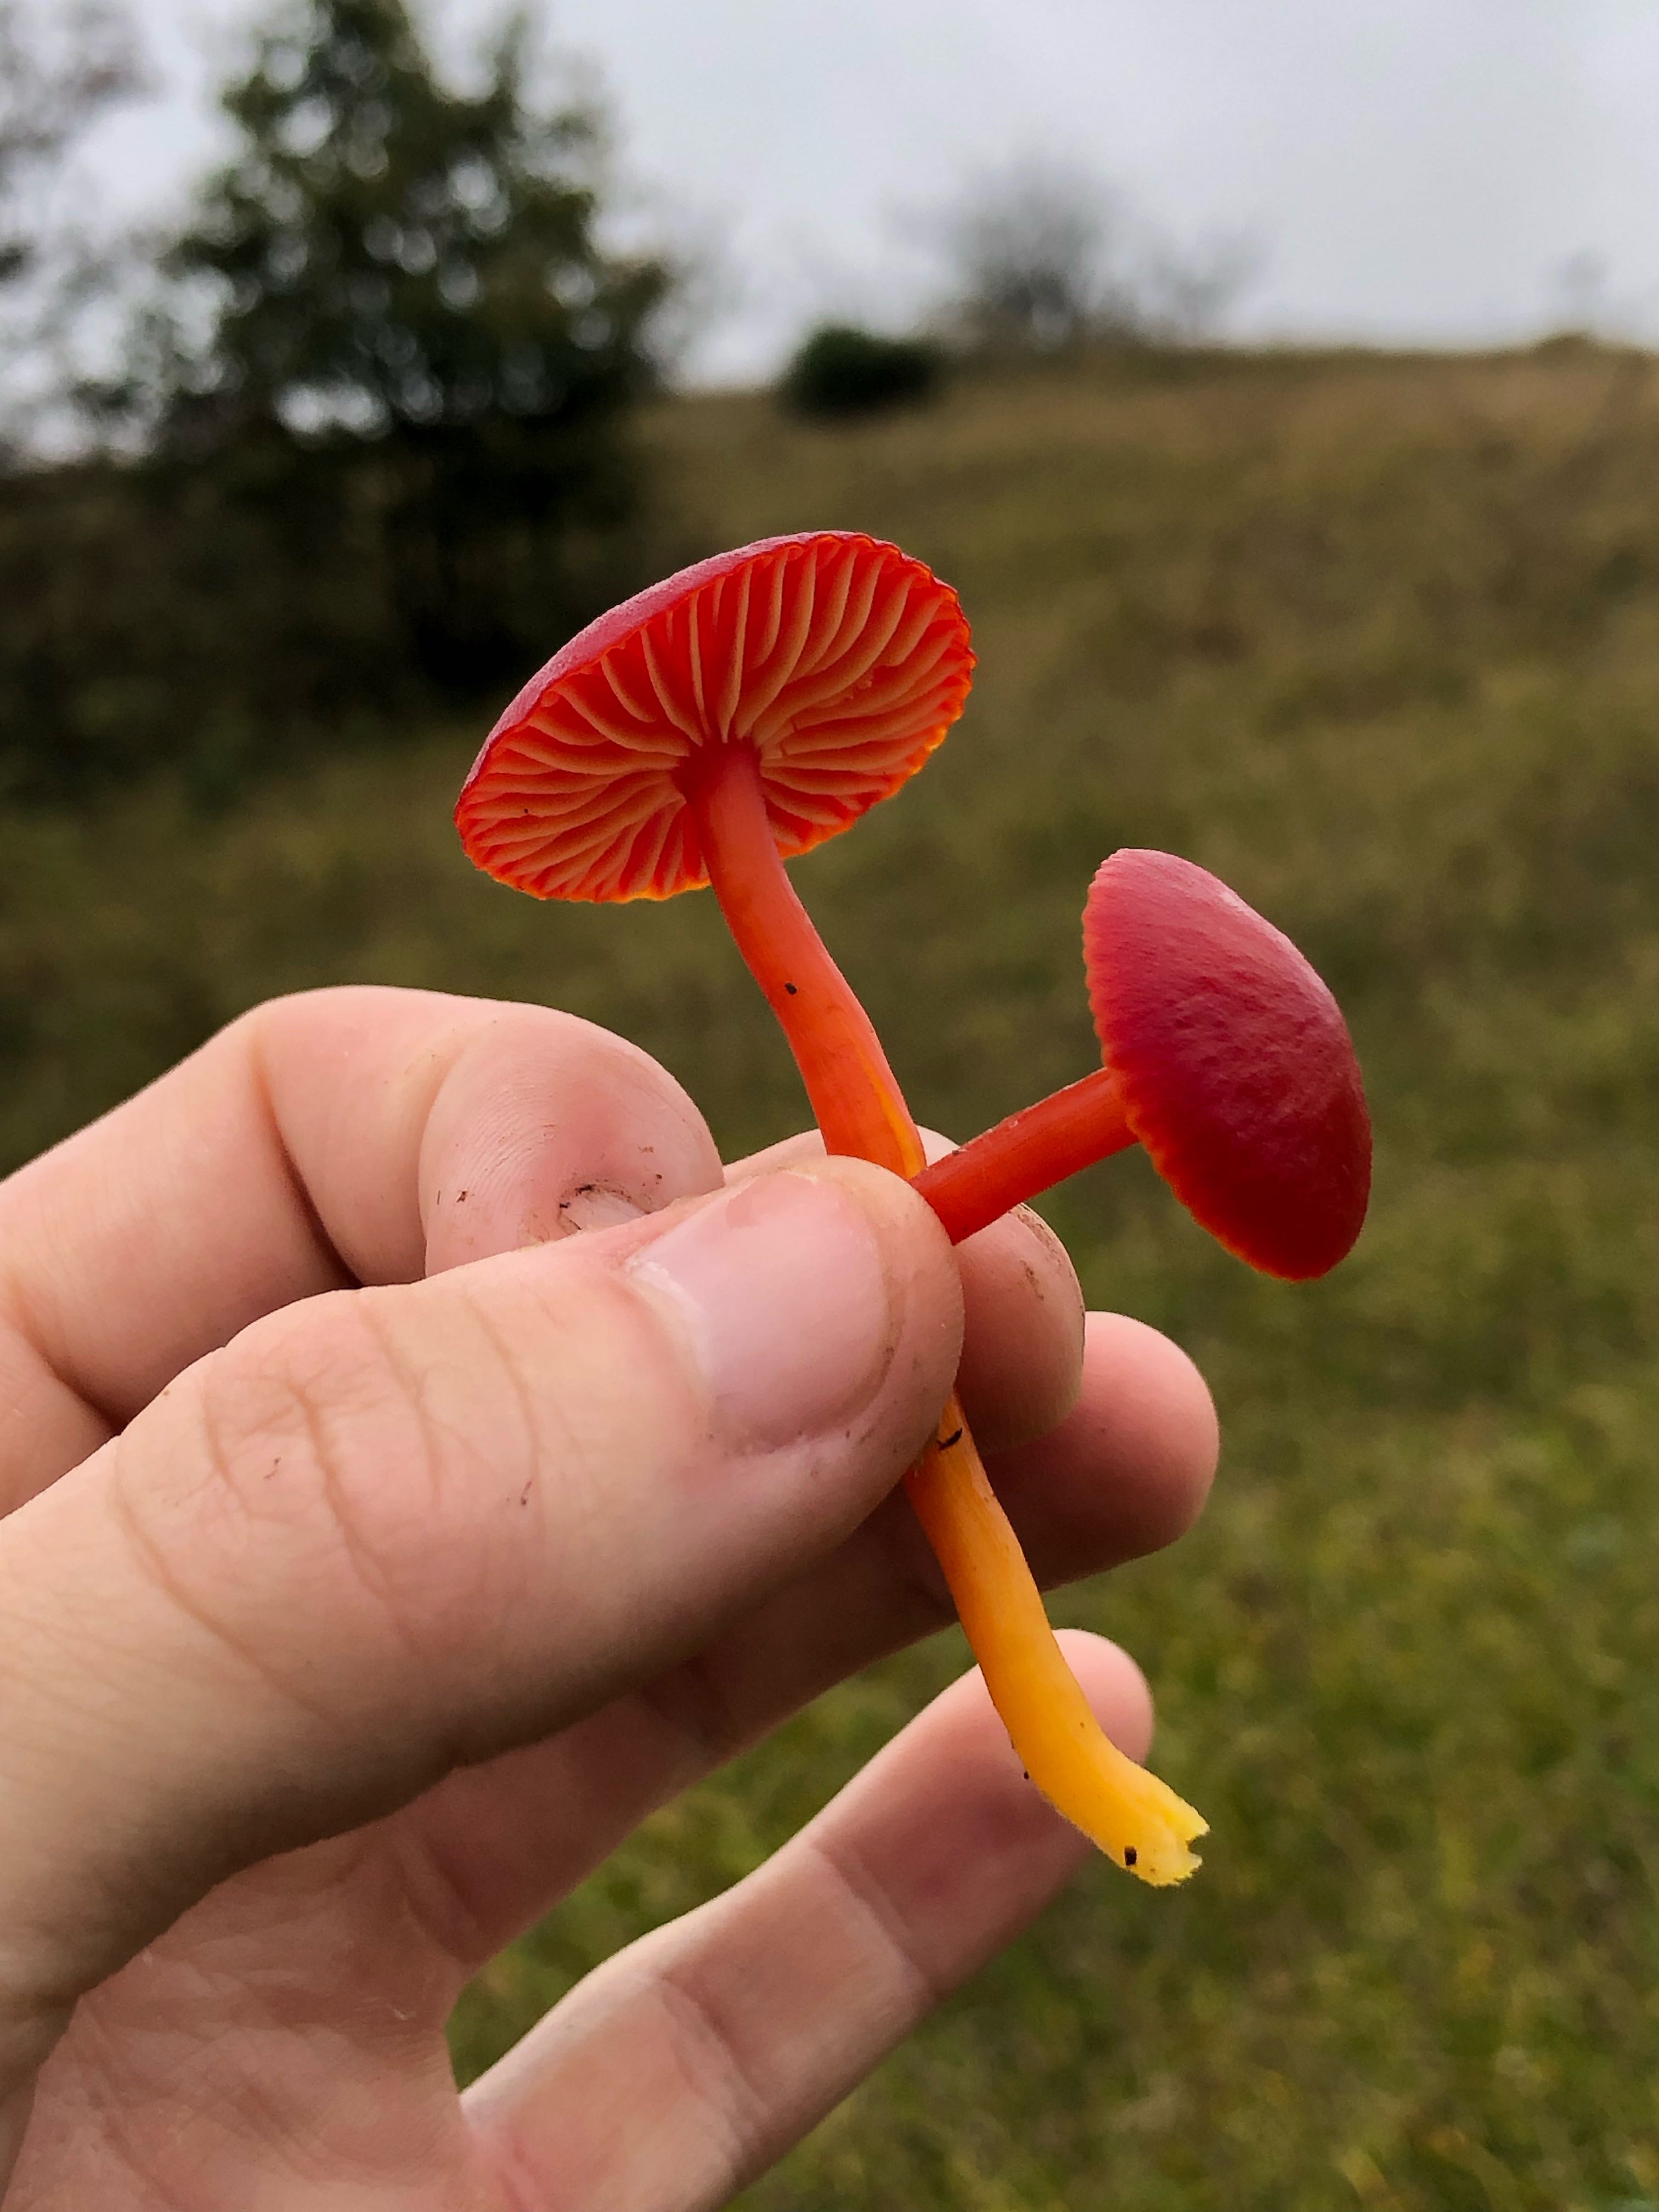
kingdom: Fungi
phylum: Basidiomycota
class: Agaricomycetes
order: Agaricales
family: Hygrophoraceae
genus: Hygrocybe
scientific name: Hygrocybe coccinea
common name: cinnober-vokshat
